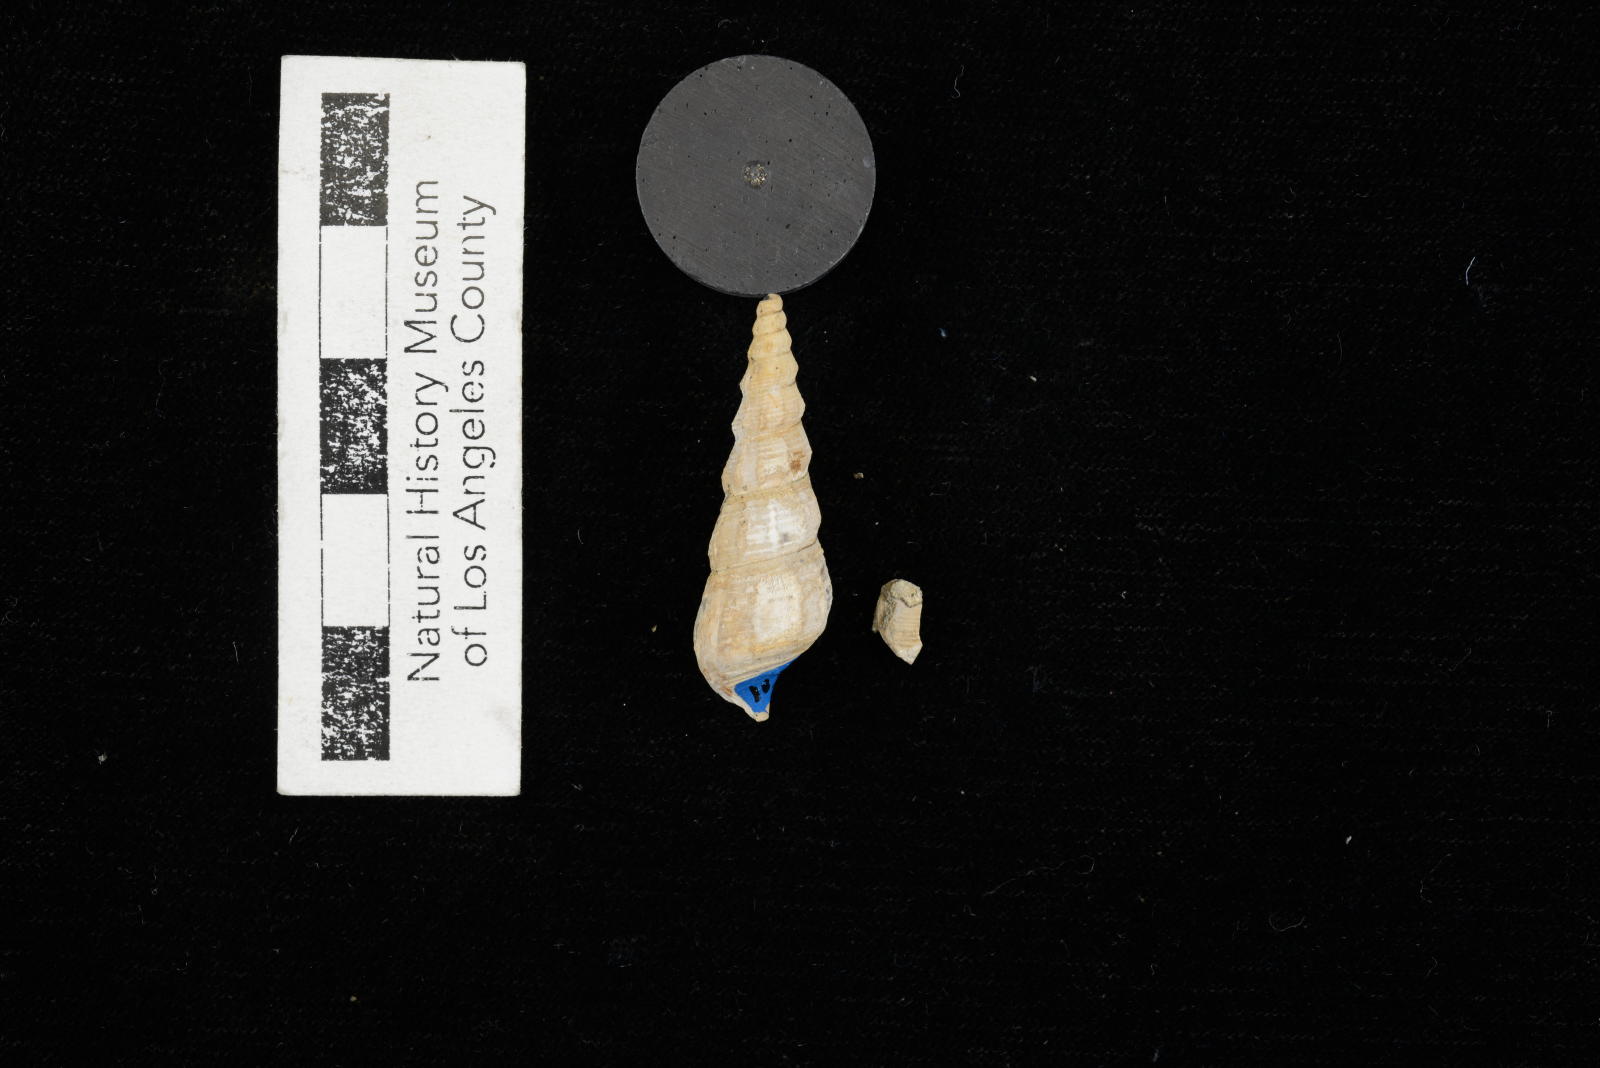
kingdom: Animalia
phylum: Mollusca
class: Gastropoda
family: Metacerithiidae
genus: Cimolithium
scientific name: Cimolithium eleanorae
